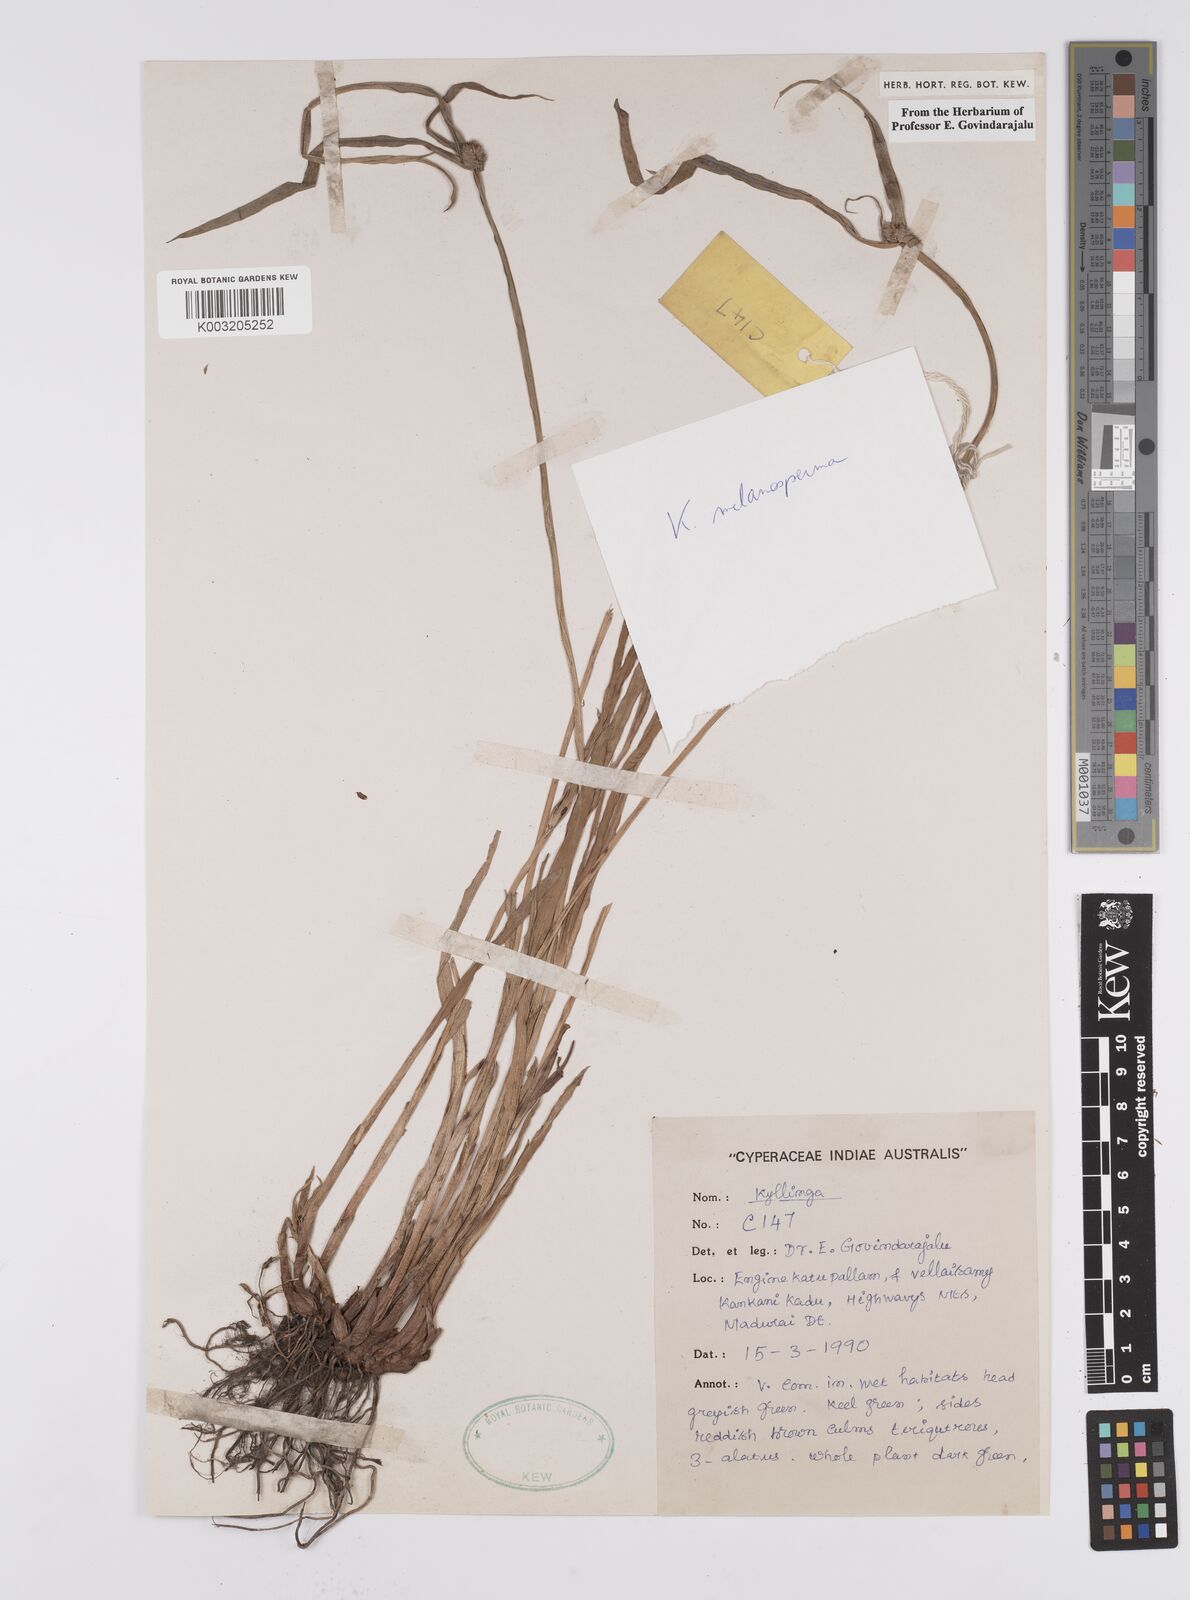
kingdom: Plantae
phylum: Tracheophyta
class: Liliopsida
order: Poales
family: Cyperaceae
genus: Cyperus
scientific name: Cyperus melanospermus
